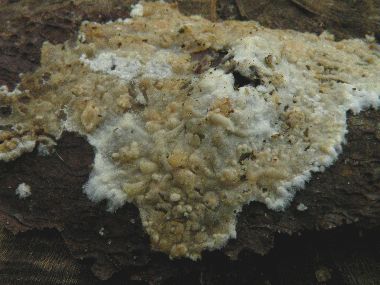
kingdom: Fungi
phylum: Basidiomycota
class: Agaricomycetes
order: Agaricales
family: Physalacriaceae
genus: Cylindrobasidium
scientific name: Cylindrobasidium evolvens
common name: sprækkehinde
